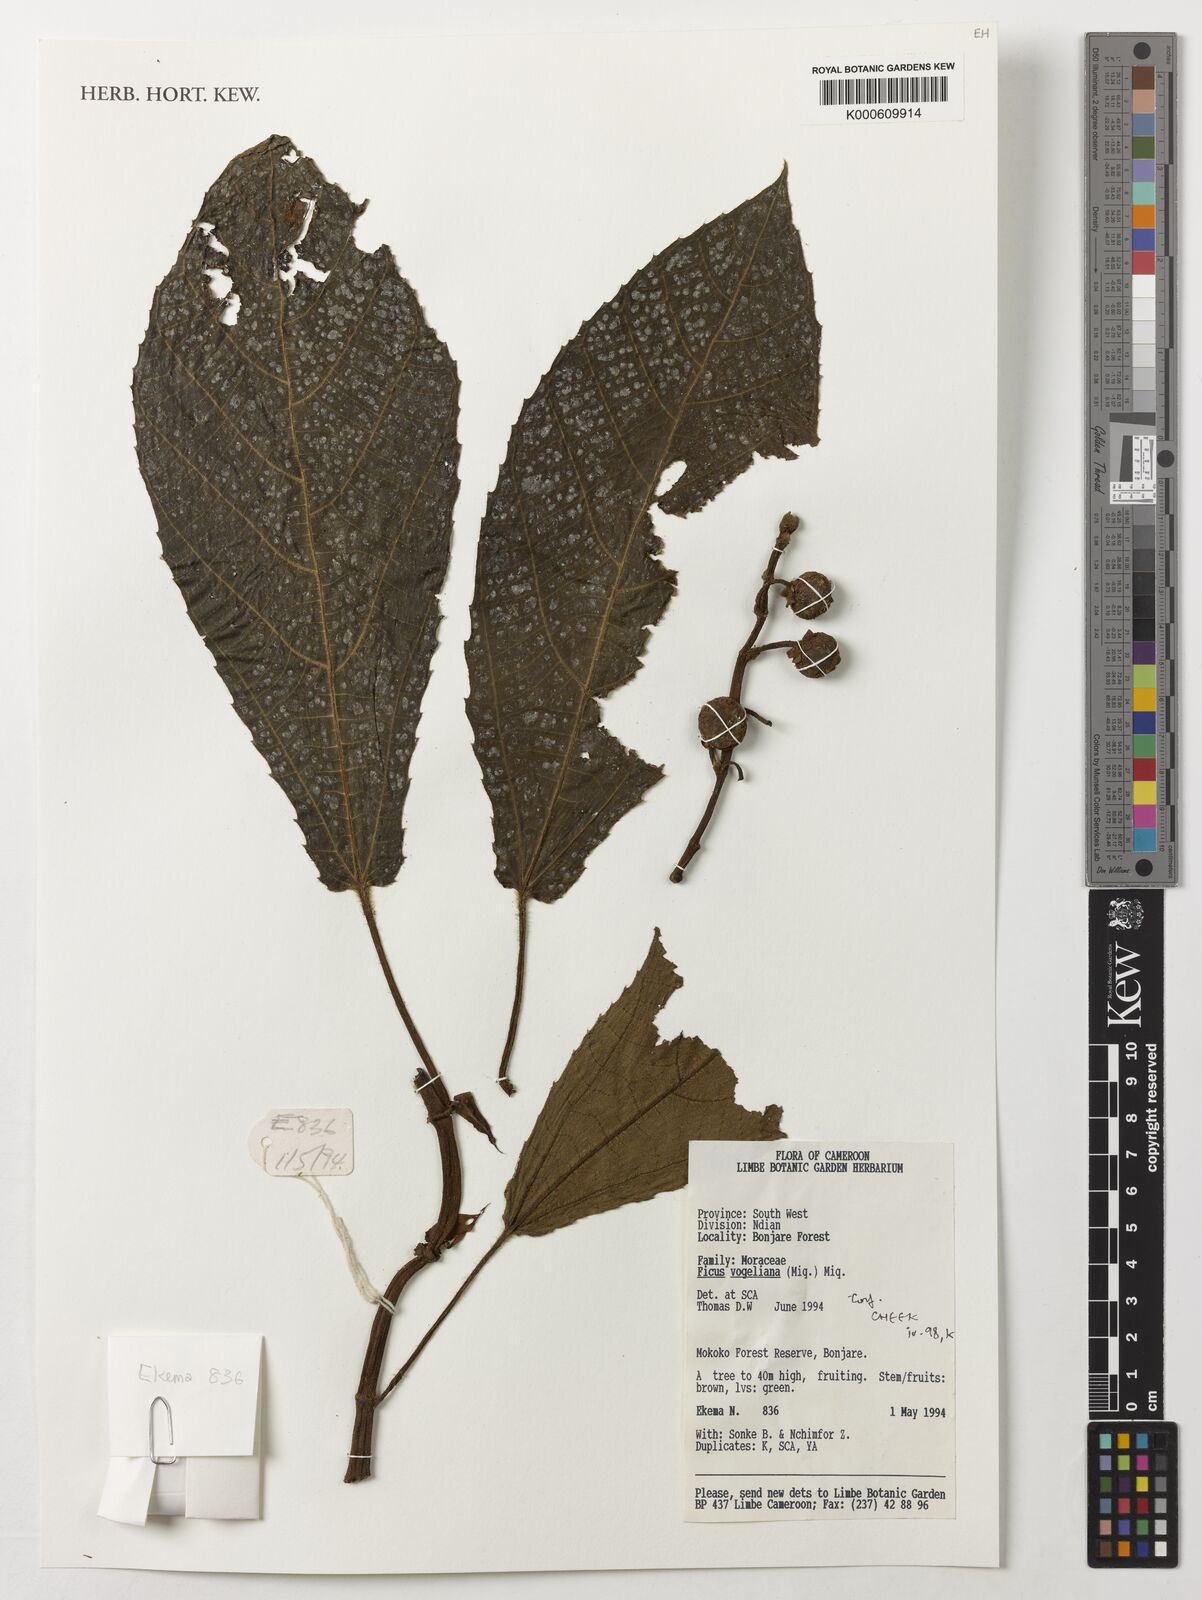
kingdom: Plantae
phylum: Tracheophyta
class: Magnoliopsida
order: Rosales
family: Moraceae
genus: Ficus
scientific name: Ficus vogeliana
